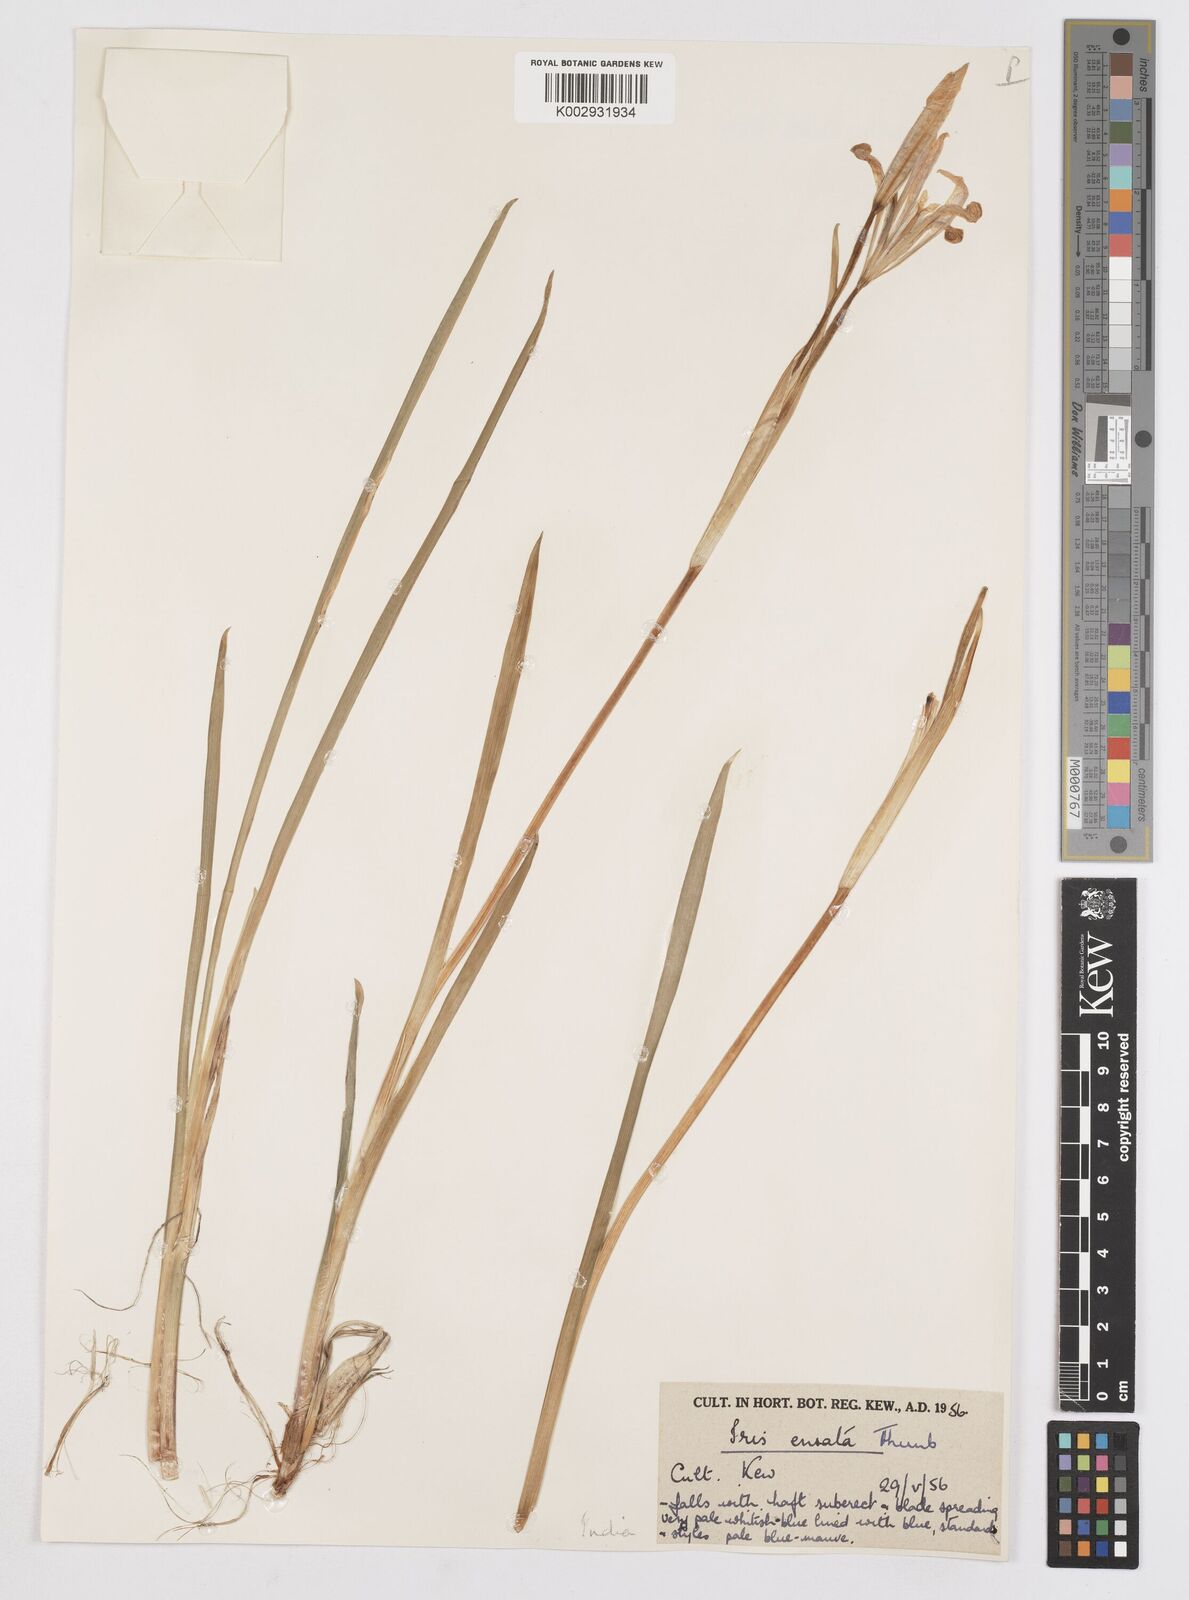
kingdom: Plantae
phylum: Tracheophyta
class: Liliopsida
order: Asparagales
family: Iridaceae
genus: Iris
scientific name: Iris ensata
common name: Beaked iris
